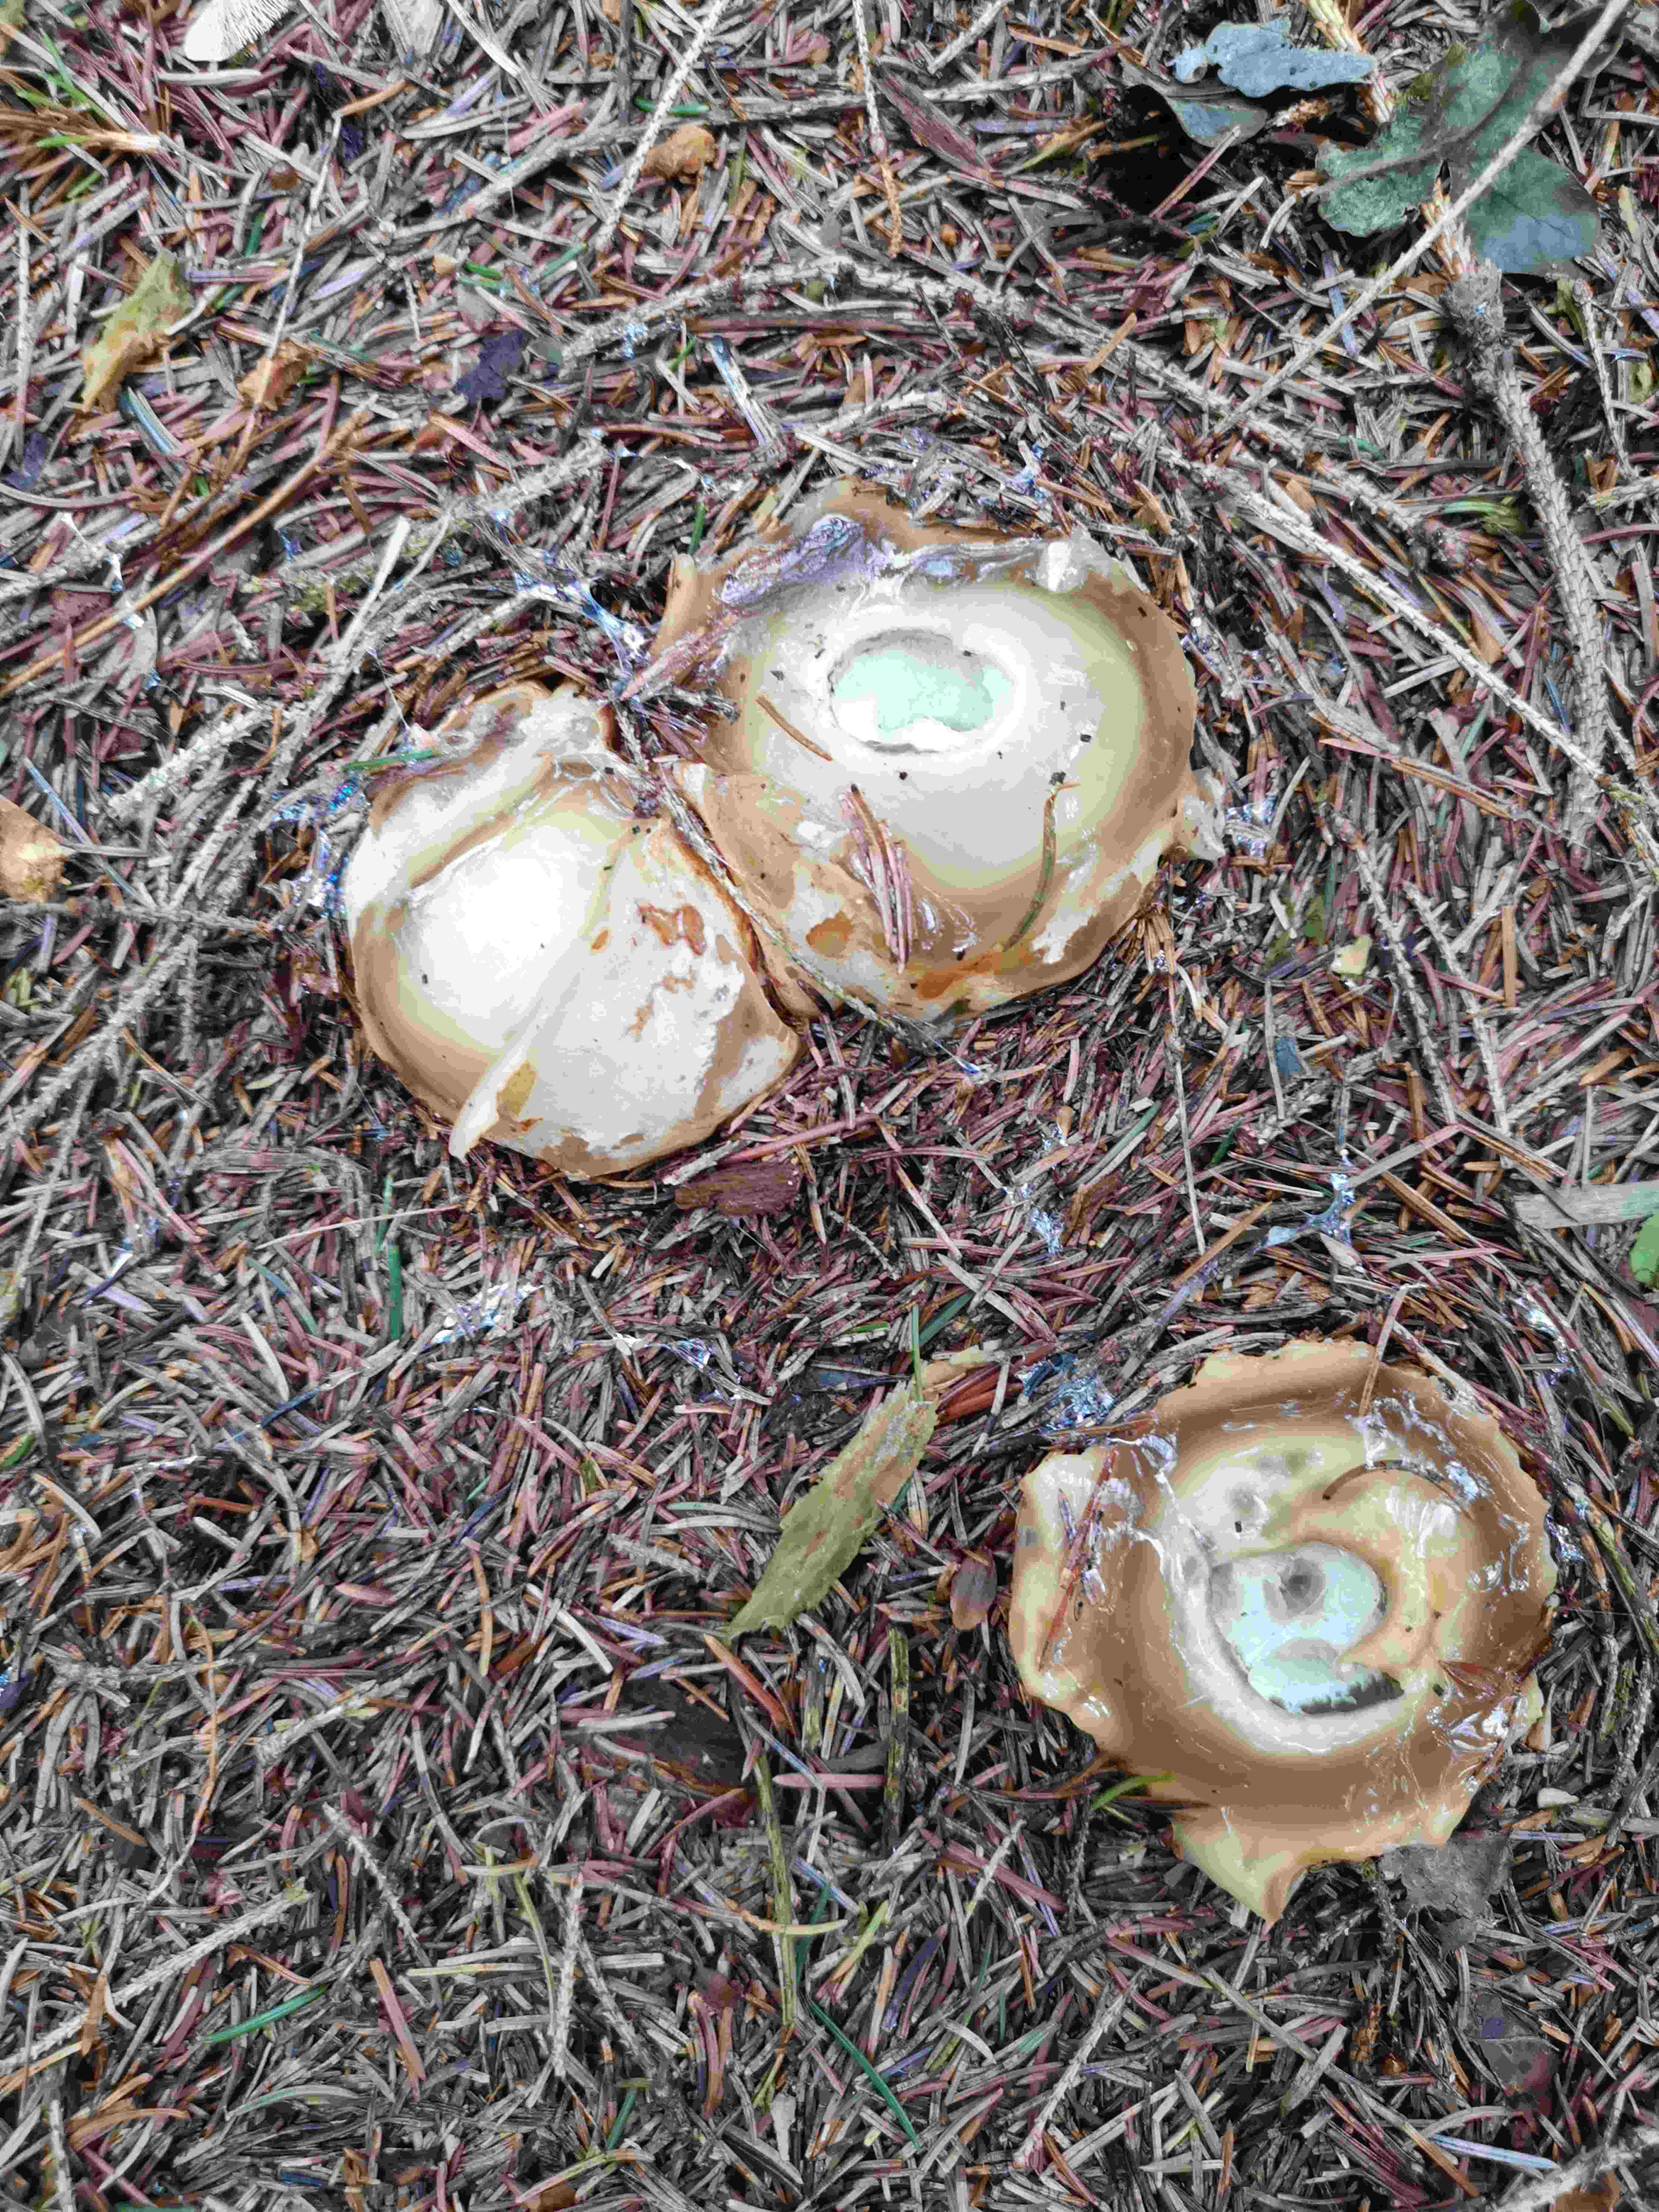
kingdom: Fungi
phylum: Basidiomycota
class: Agaricomycetes
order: Phallales
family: Phallaceae
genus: Phallus
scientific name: Phallus impudicus
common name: almindelig stinksvamp
